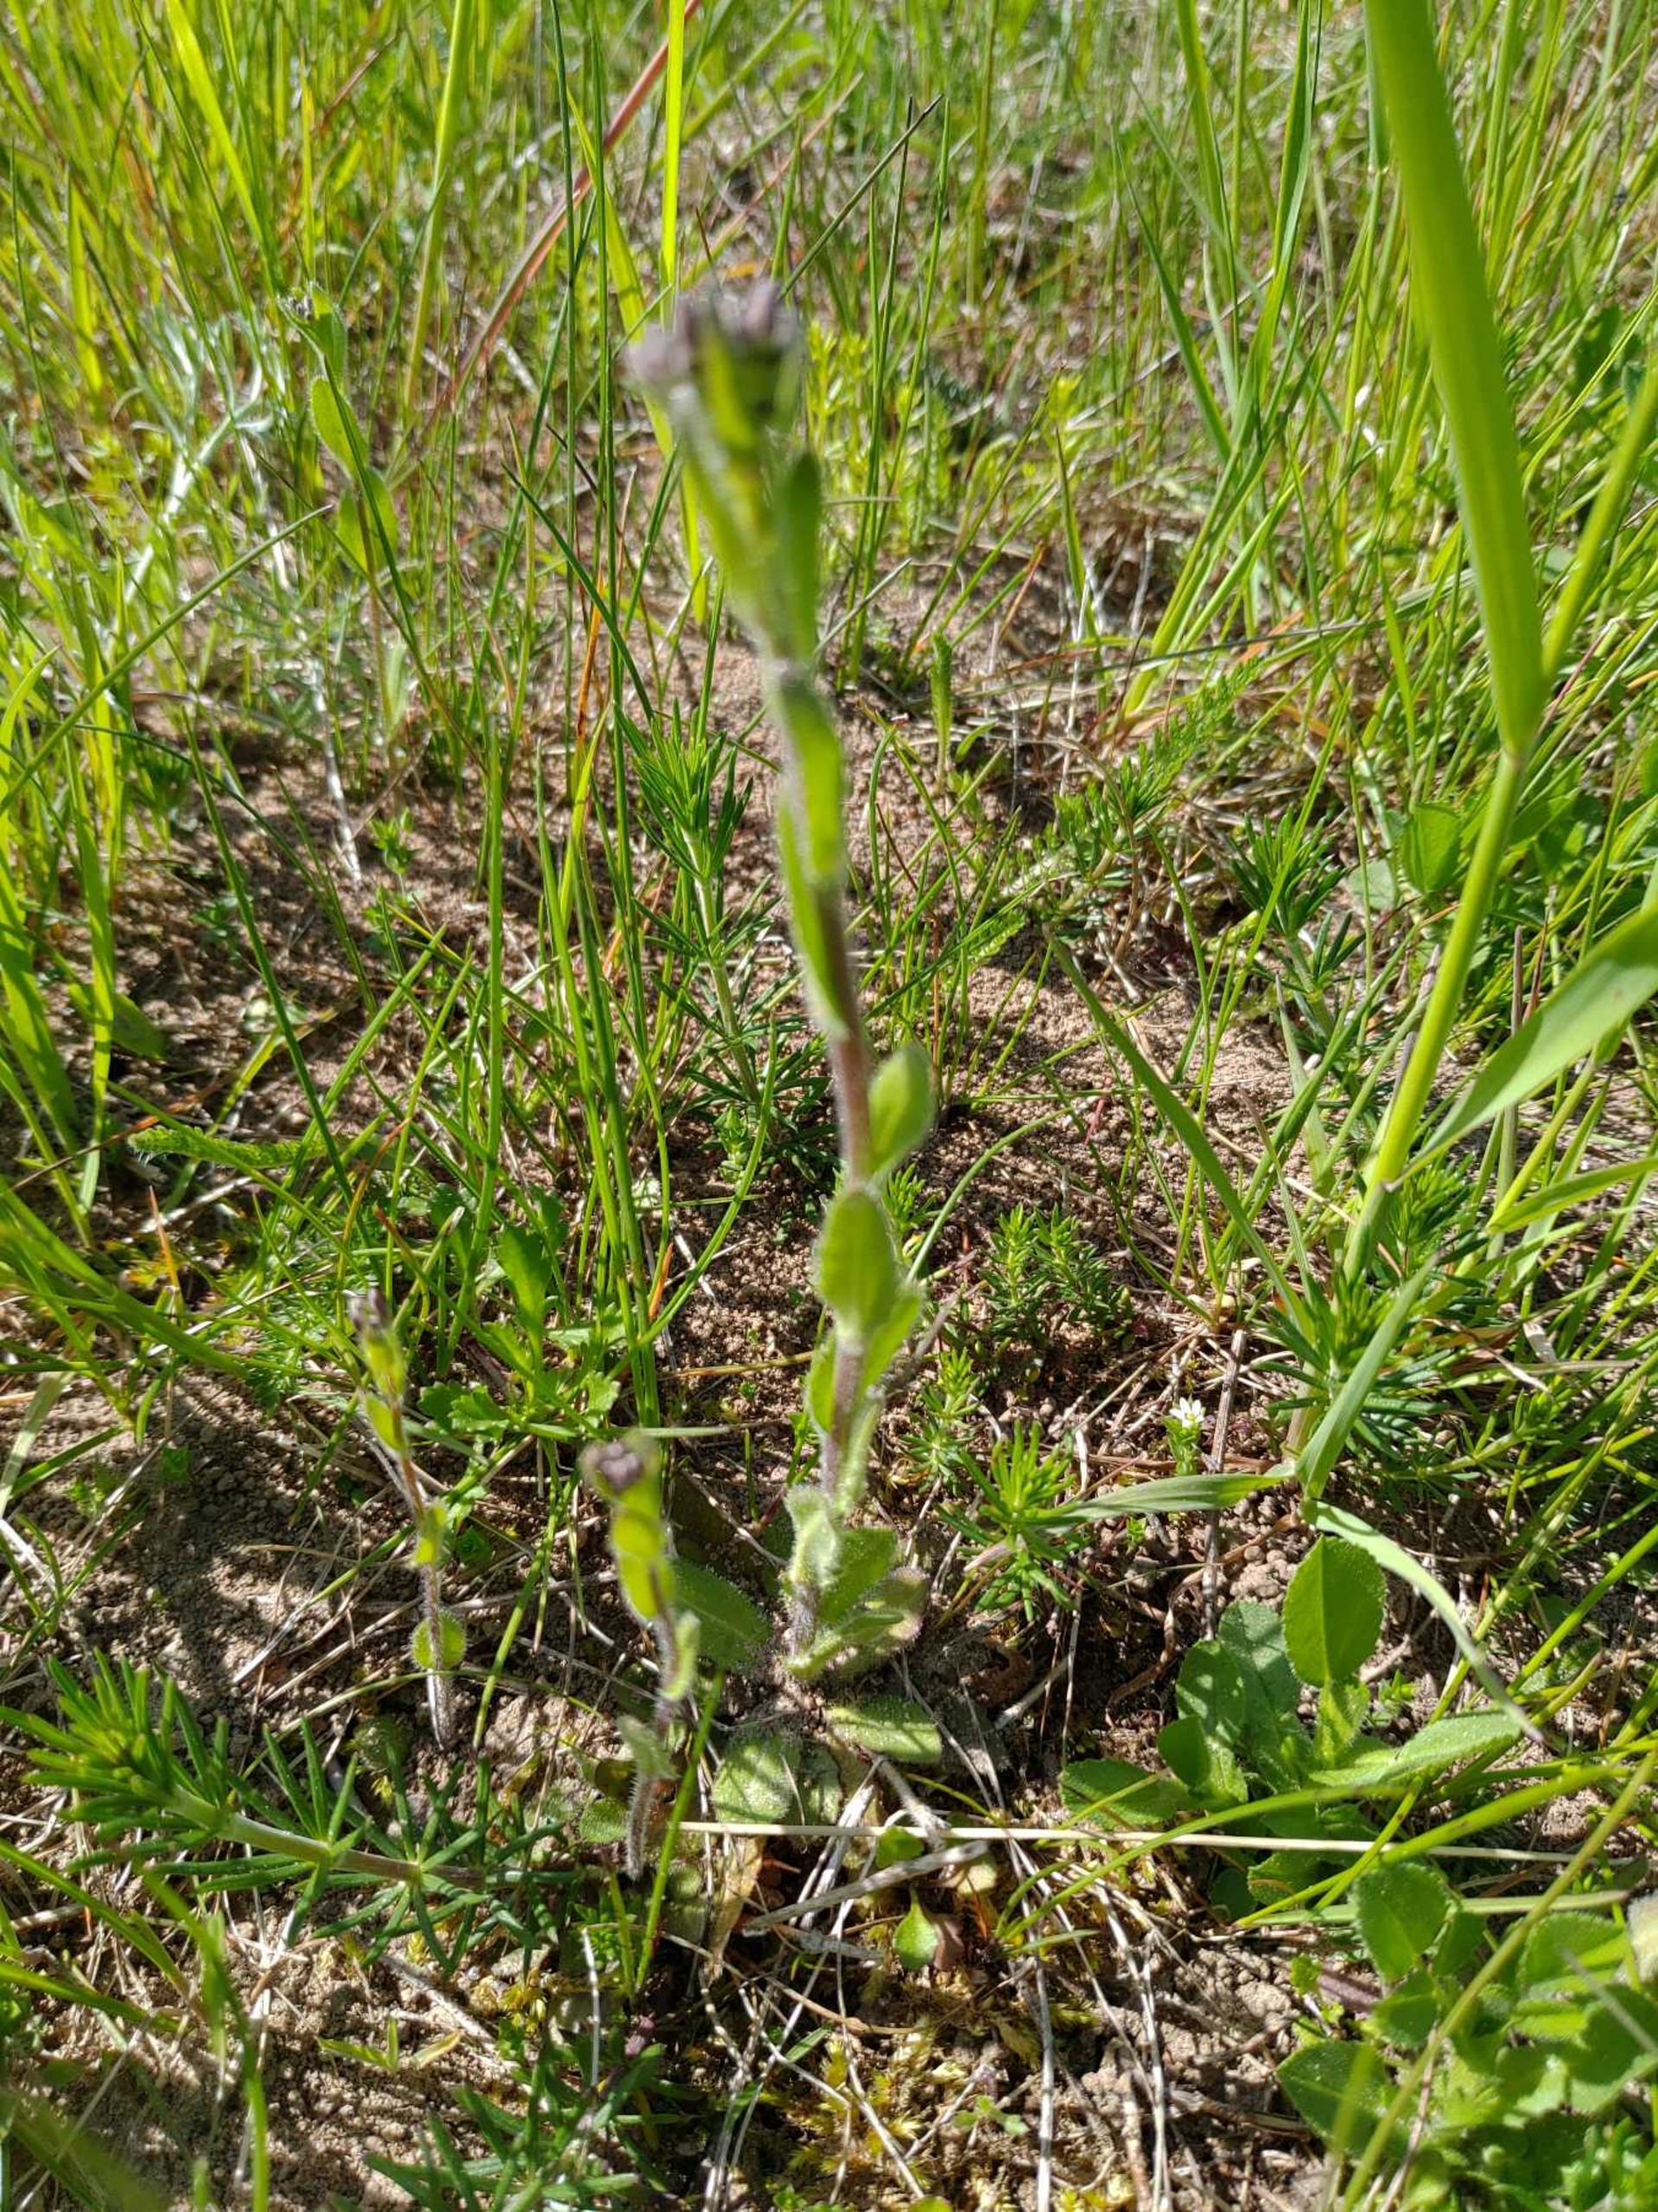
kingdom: Plantae
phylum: Tracheophyta
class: Magnoliopsida
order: Brassicales
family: Brassicaceae
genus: Arabis
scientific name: Arabis hirsuta
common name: Stivhåret kalkkarse
